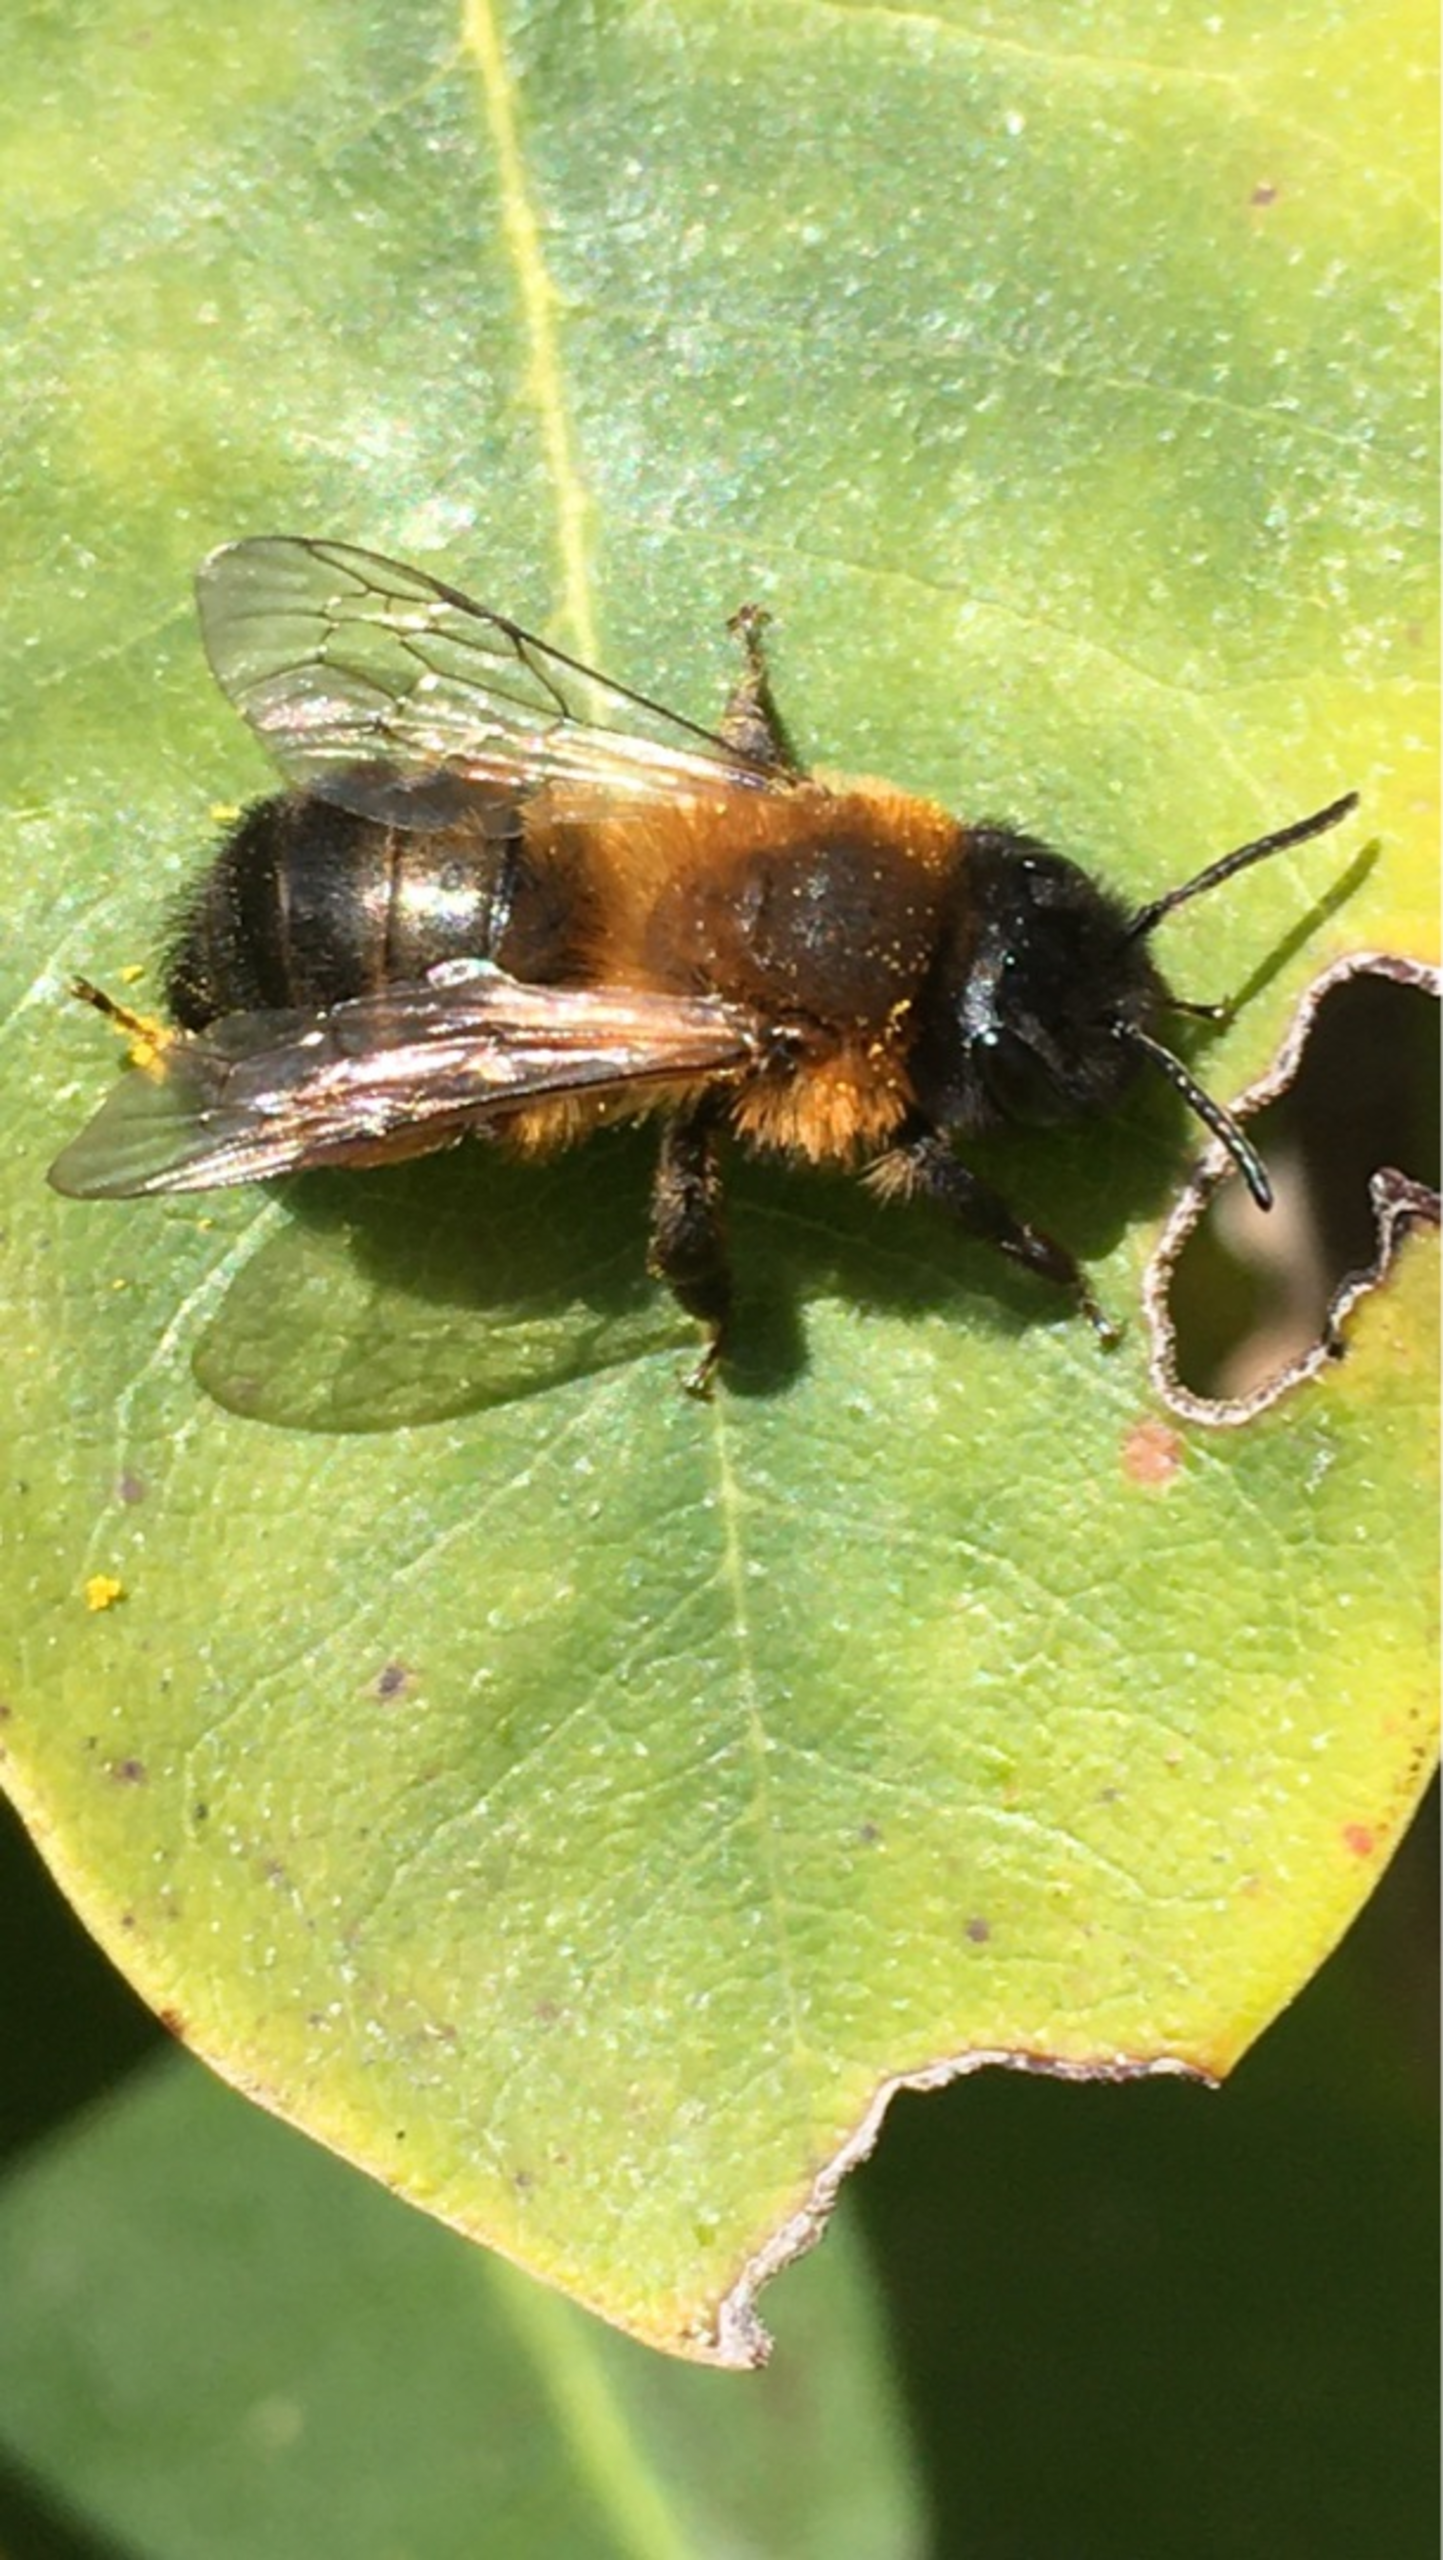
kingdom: Animalia
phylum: Arthropoda
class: Insecta
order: Hymenoptera
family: Andrenidae
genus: Andrena
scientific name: Andrena nigroaenea
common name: Sortbrun jordbi
